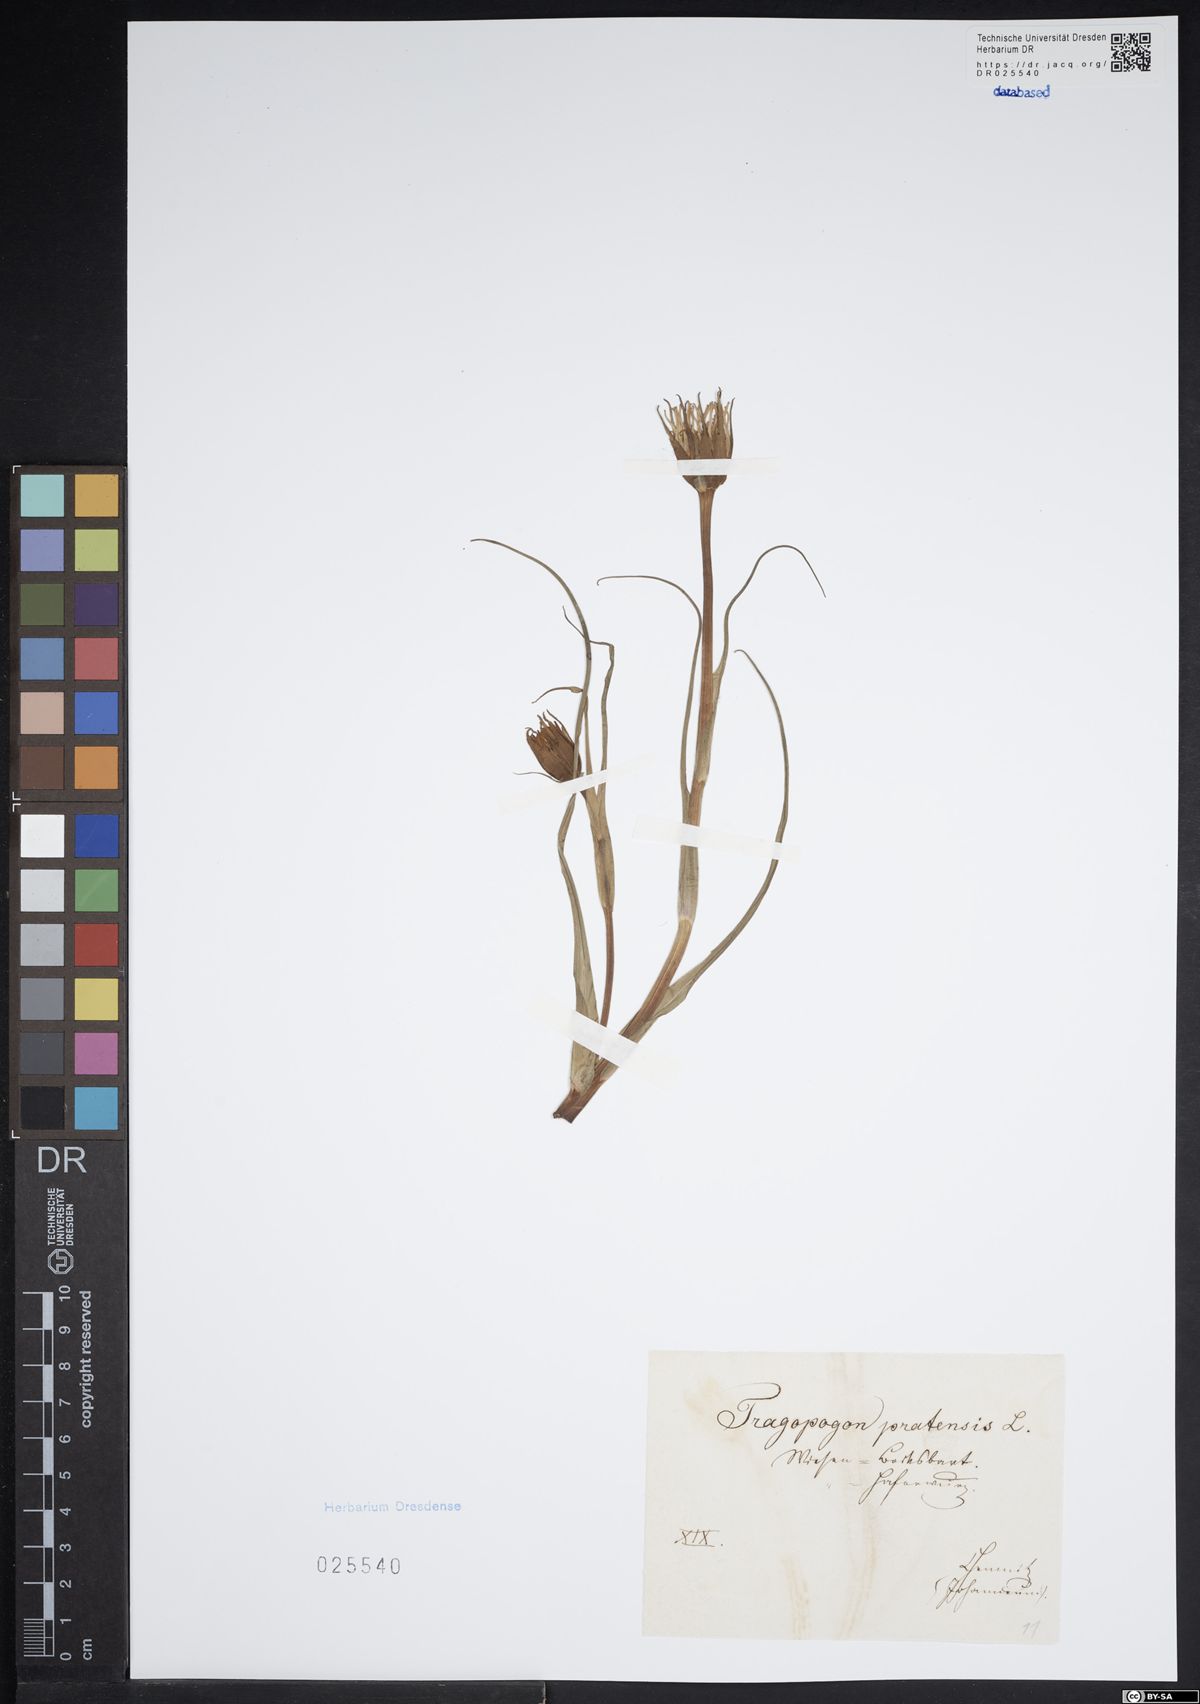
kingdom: Plantae
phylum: Tracheophyta
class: Magnoliopsida
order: Asterales
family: Asteraceae
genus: Tragopogon
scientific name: Tragopogon pratensis
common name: Goat's-beard
